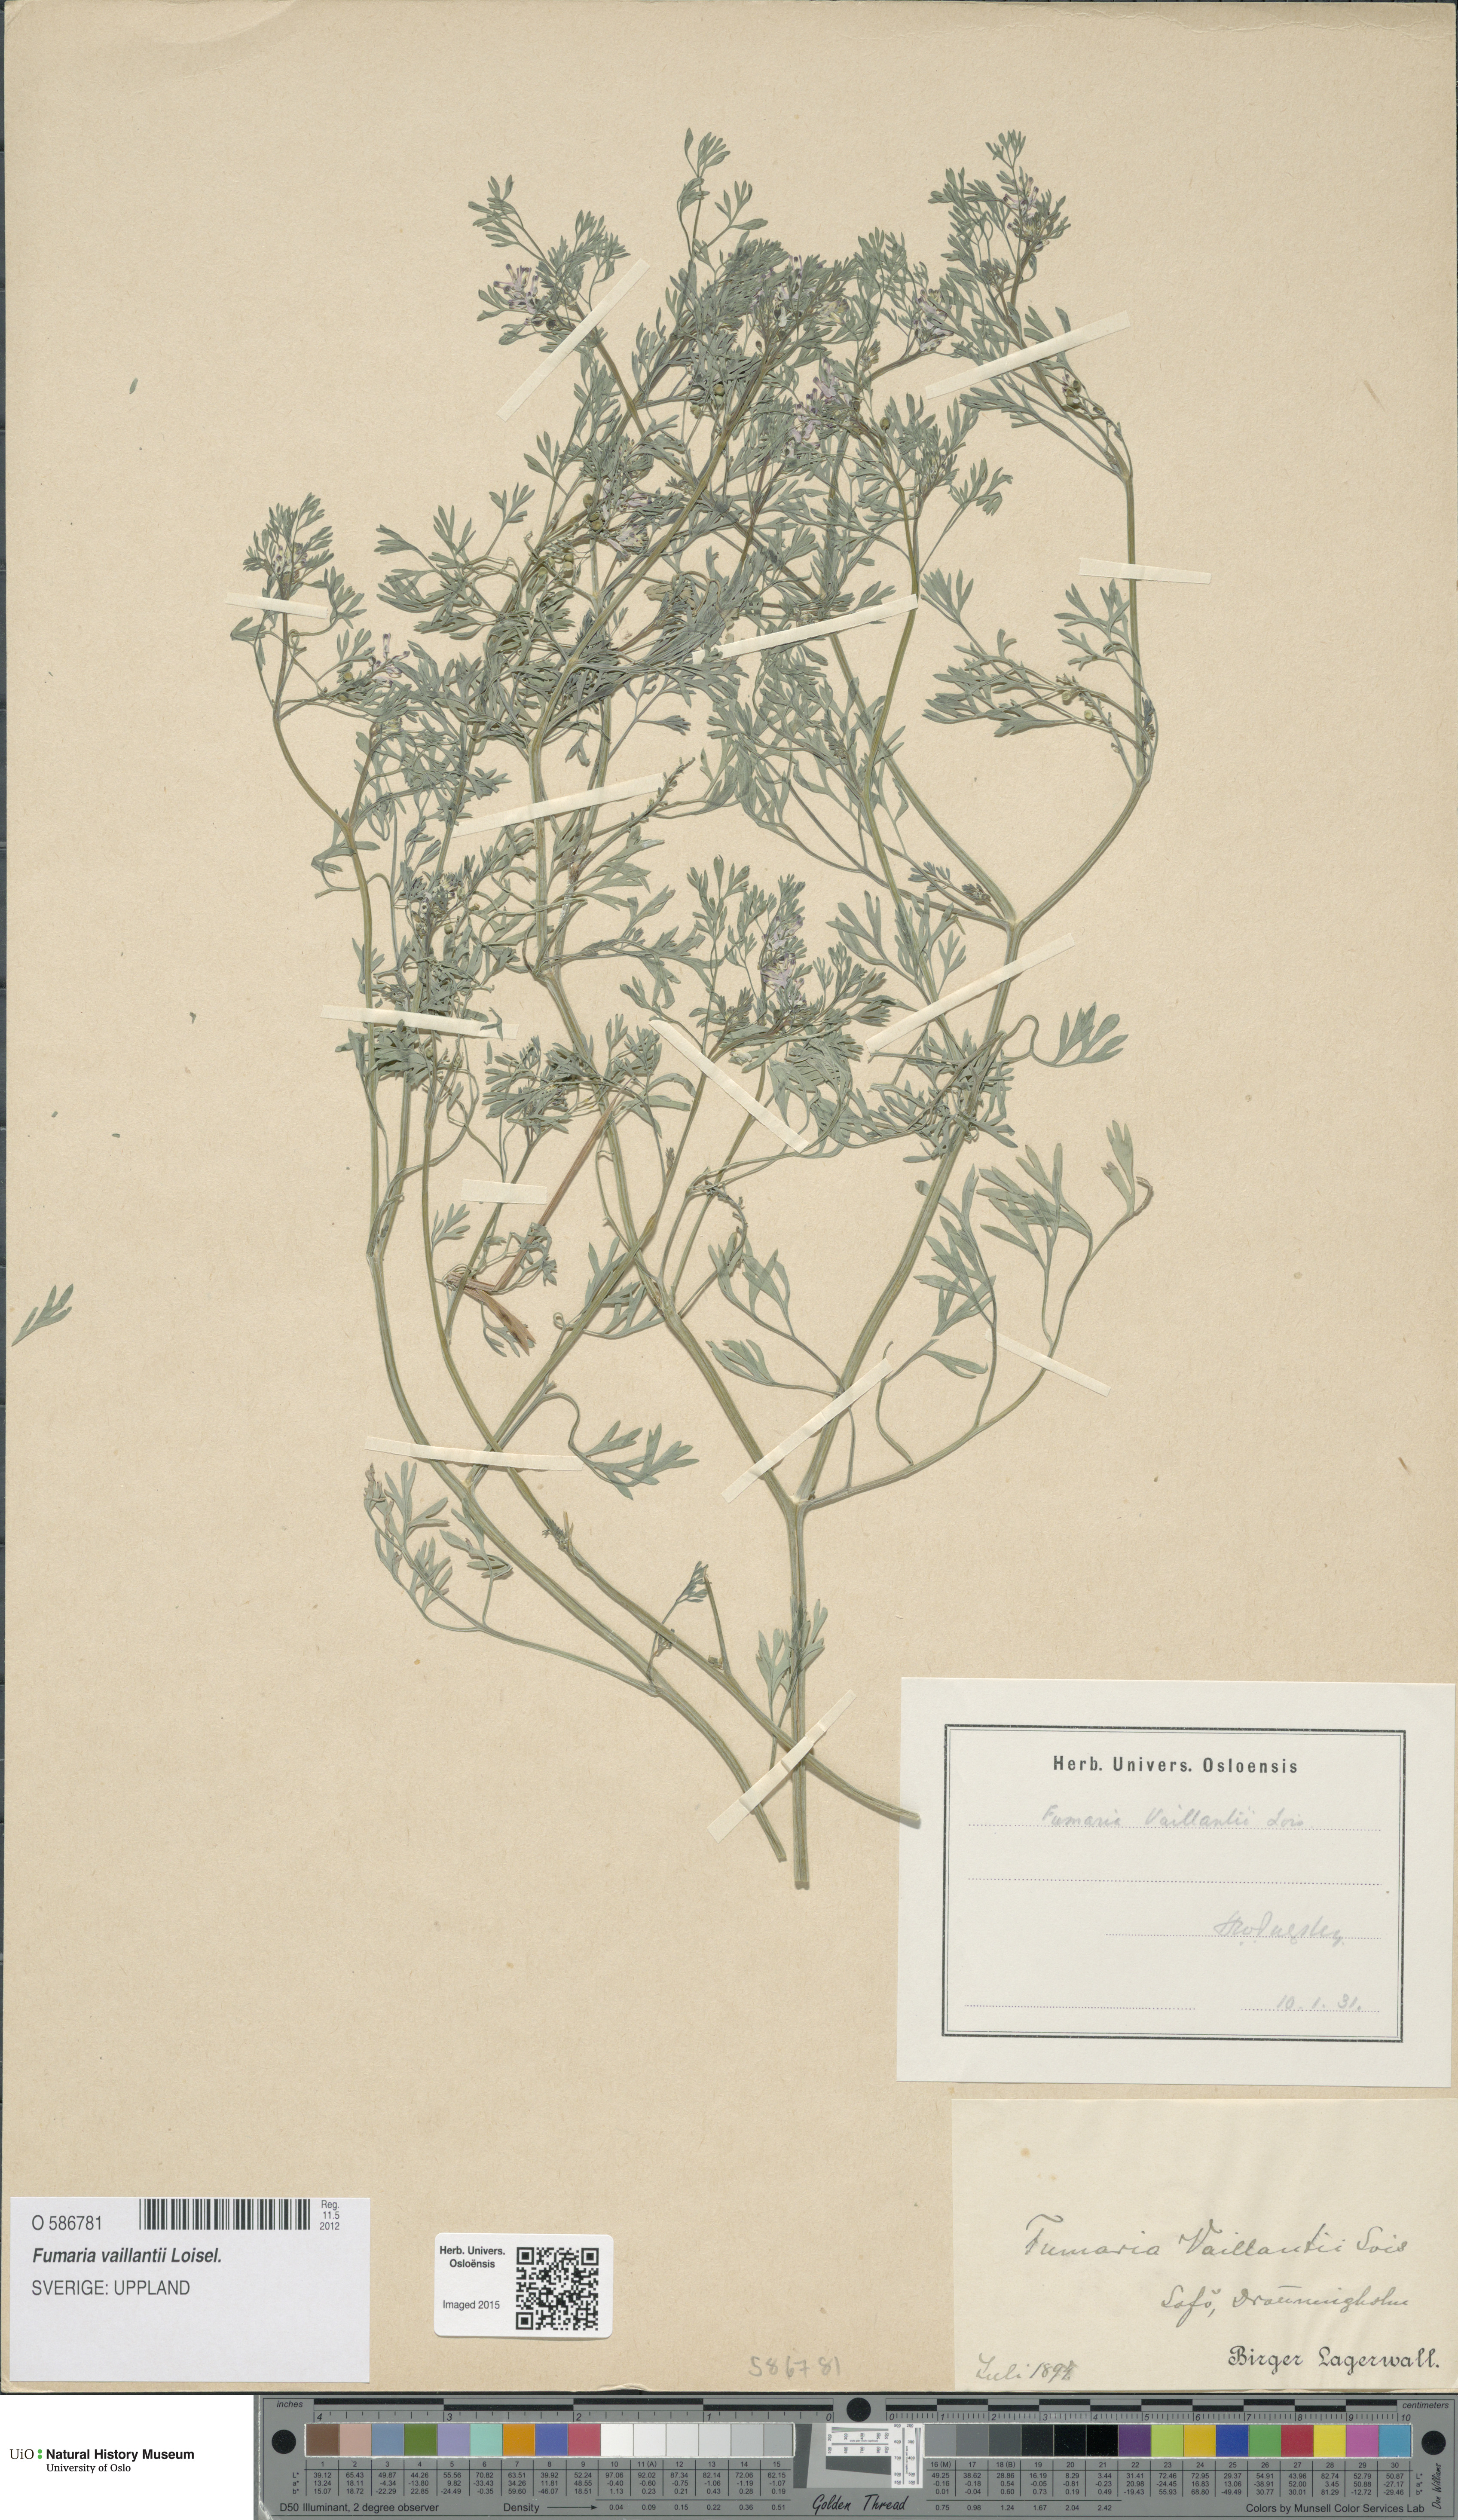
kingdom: Plantae
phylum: Tracheophyta
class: Magnoliopsida
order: Ranunculales
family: Papaveraceae
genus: Fumaria
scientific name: Fumaria vaillantii
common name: Few-flowered fumitory
